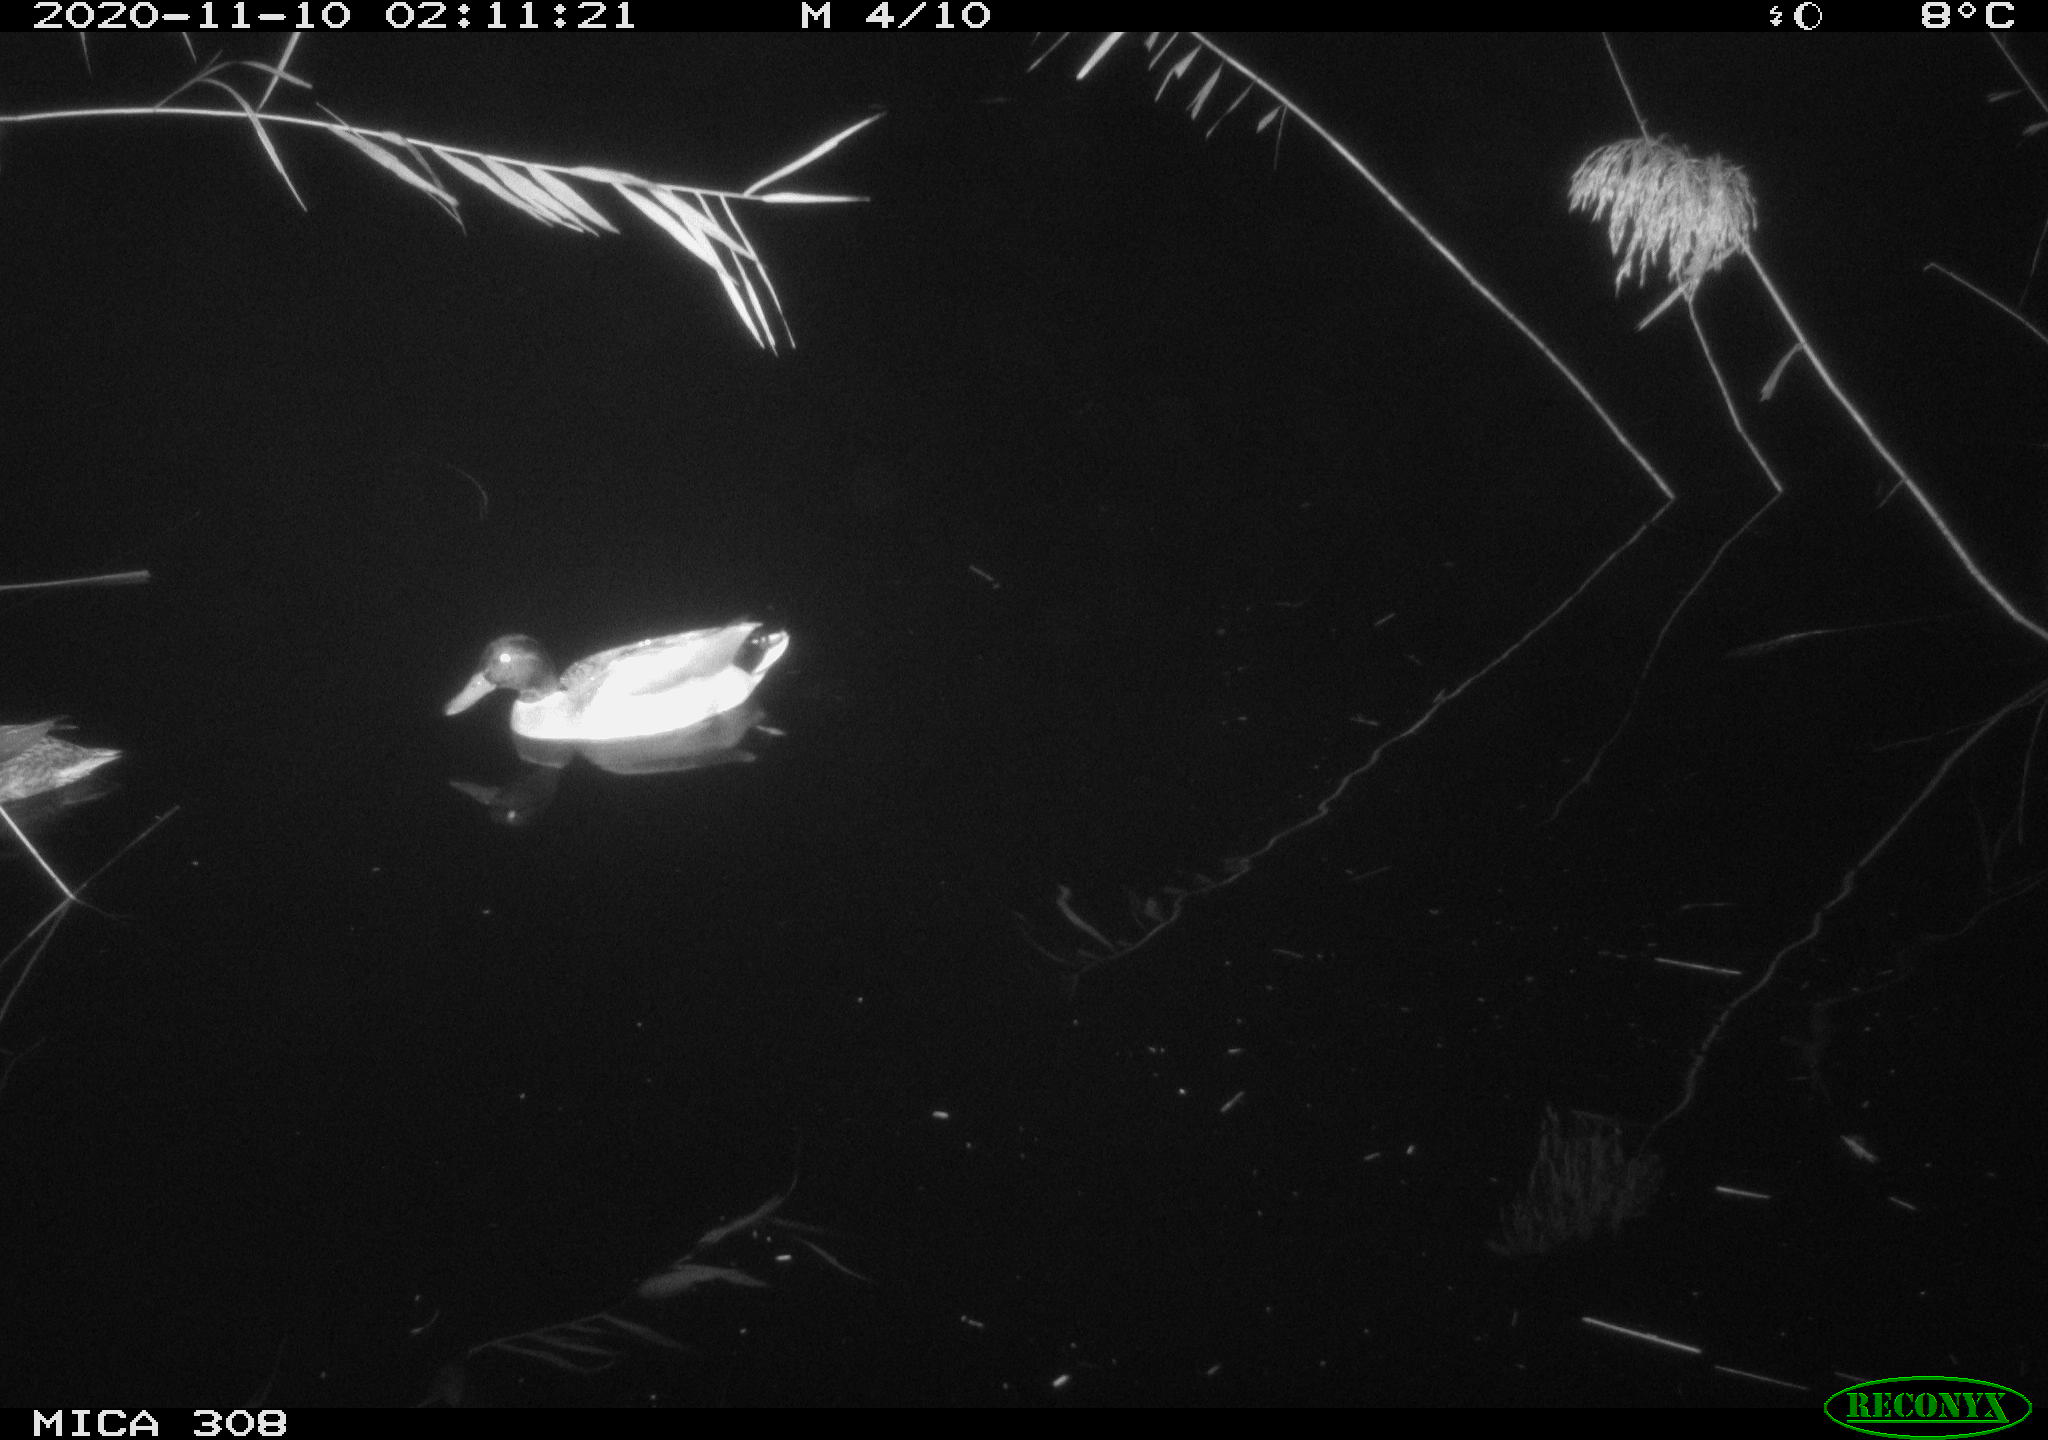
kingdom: Animalia
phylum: Chordata
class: Aves
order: Anseriformes
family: Anatidae
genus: Anas
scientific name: Anas platyrhynchos
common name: Mallard
